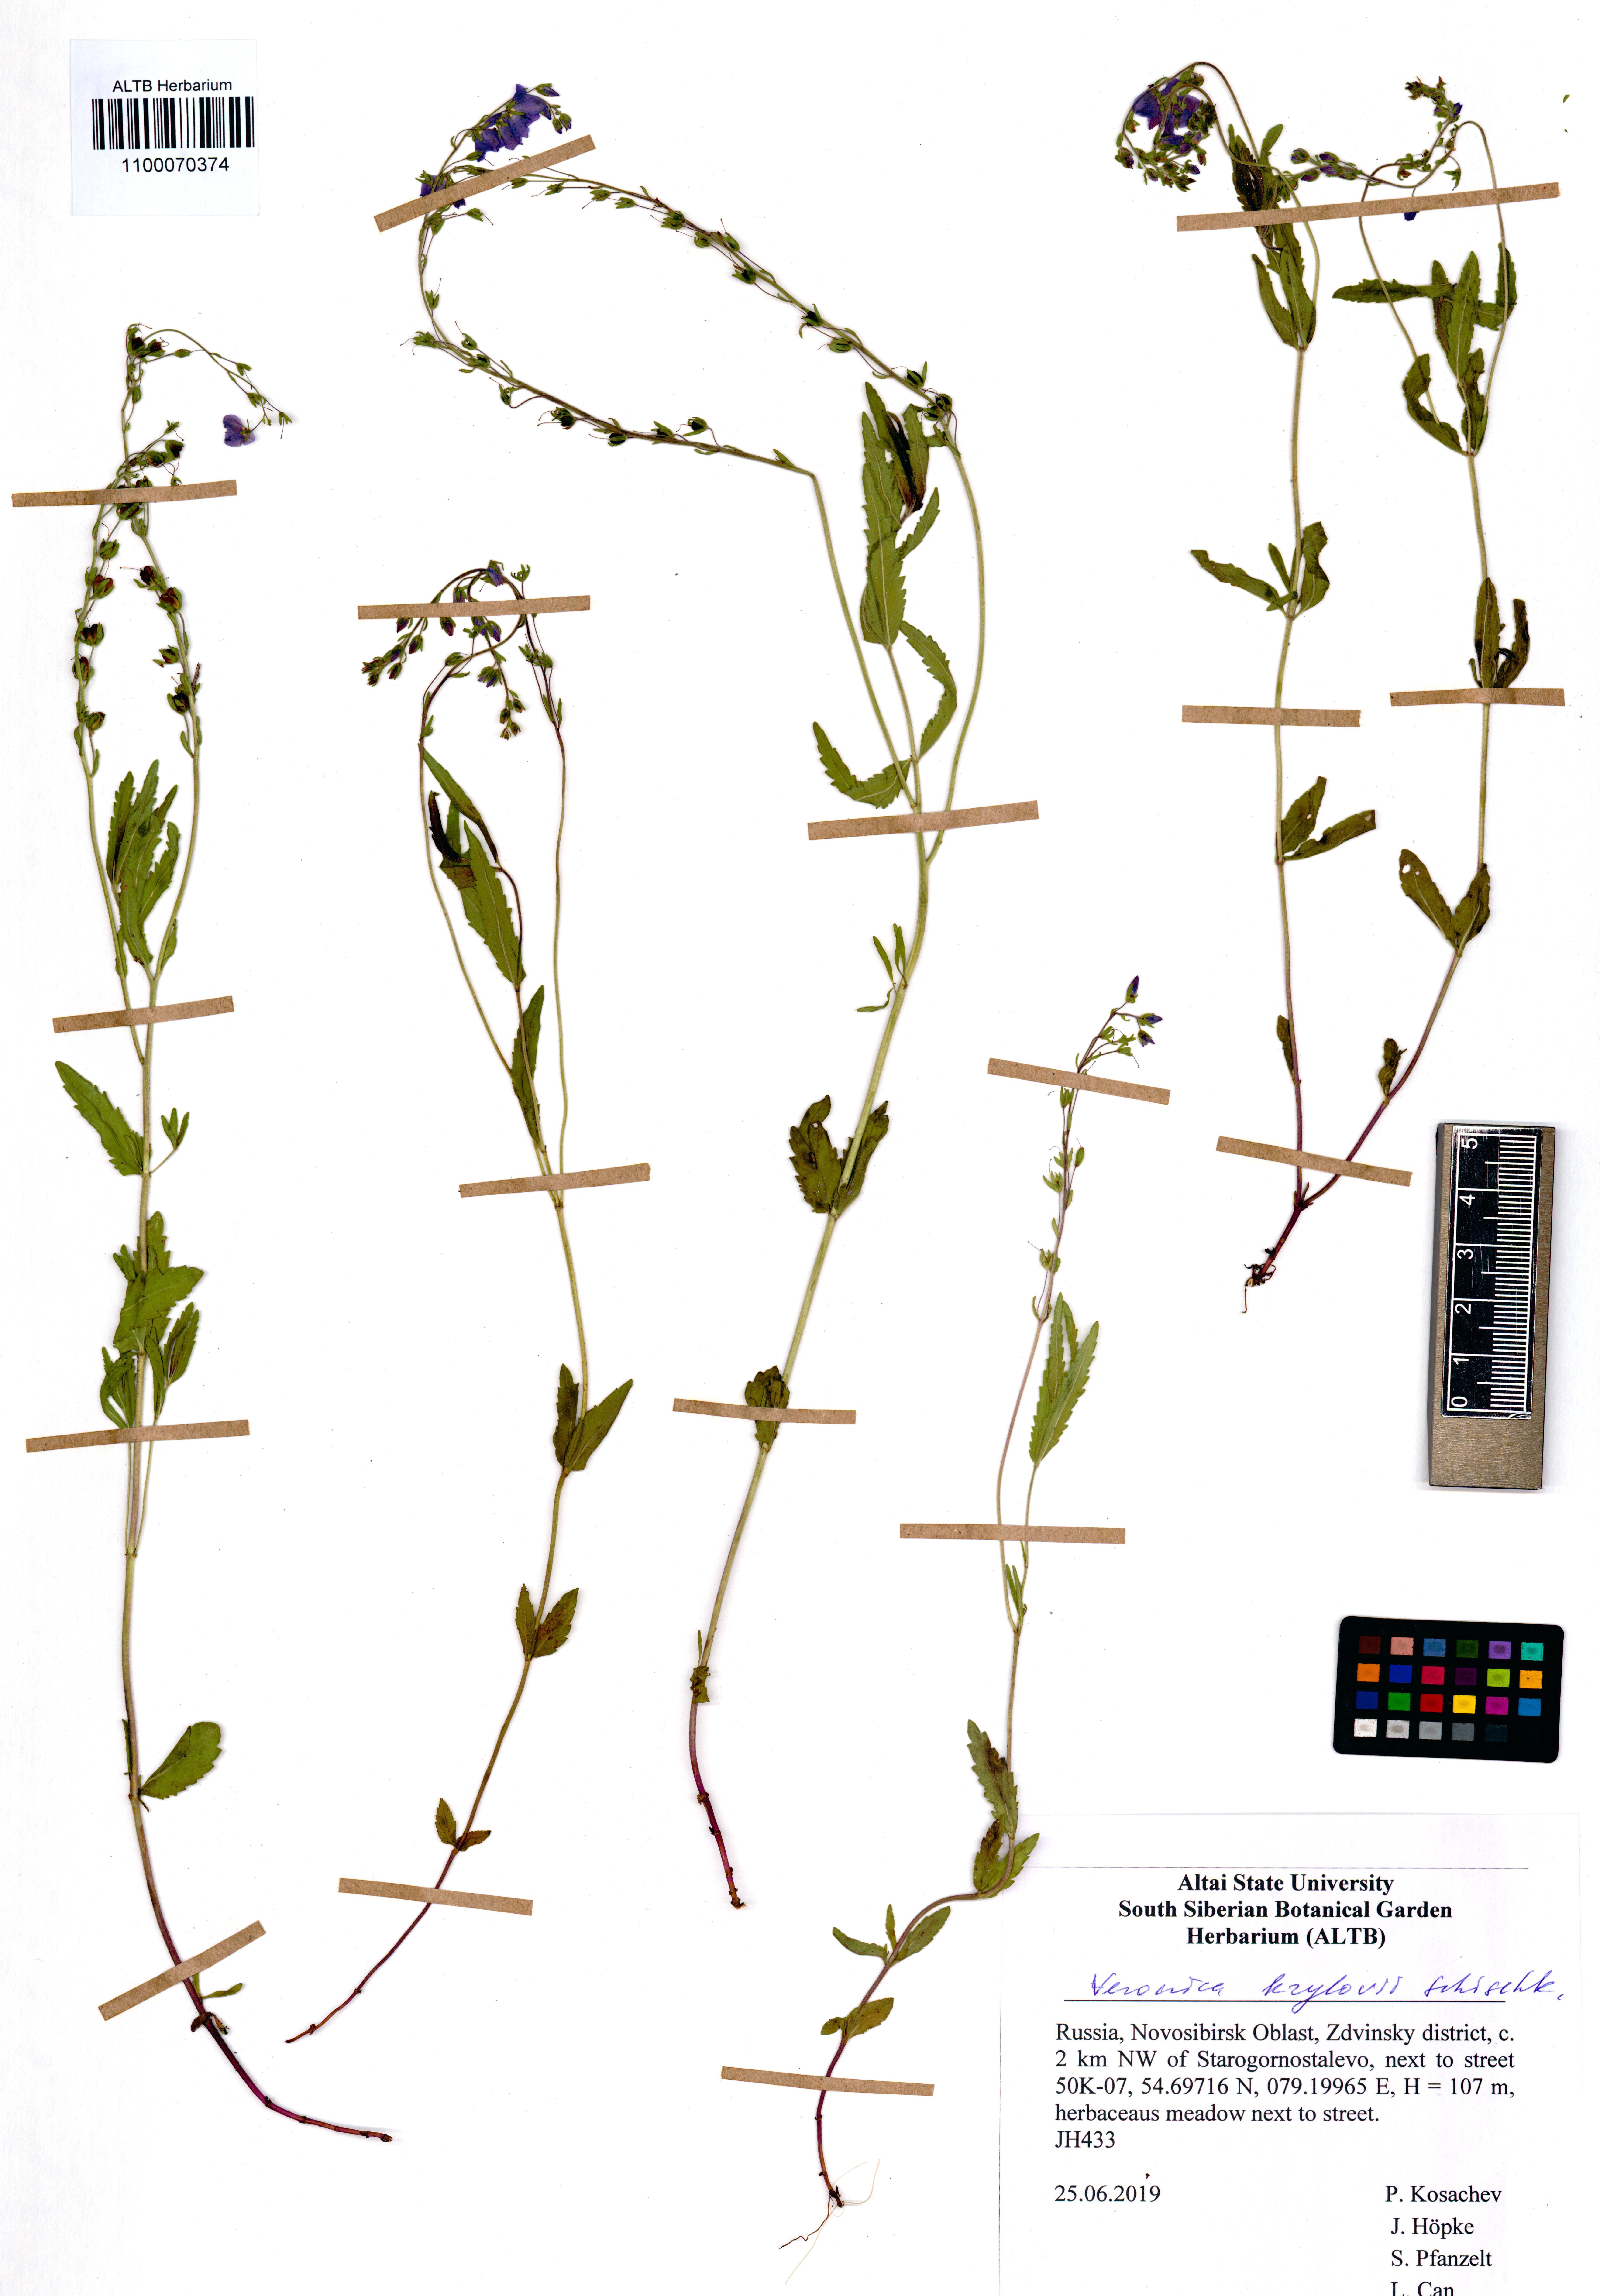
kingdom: Plantae
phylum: Tracheophyta
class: Magnoliopsida
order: Lamiales
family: Plantaginaceae
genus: Veronica
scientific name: Veronica krylovii
